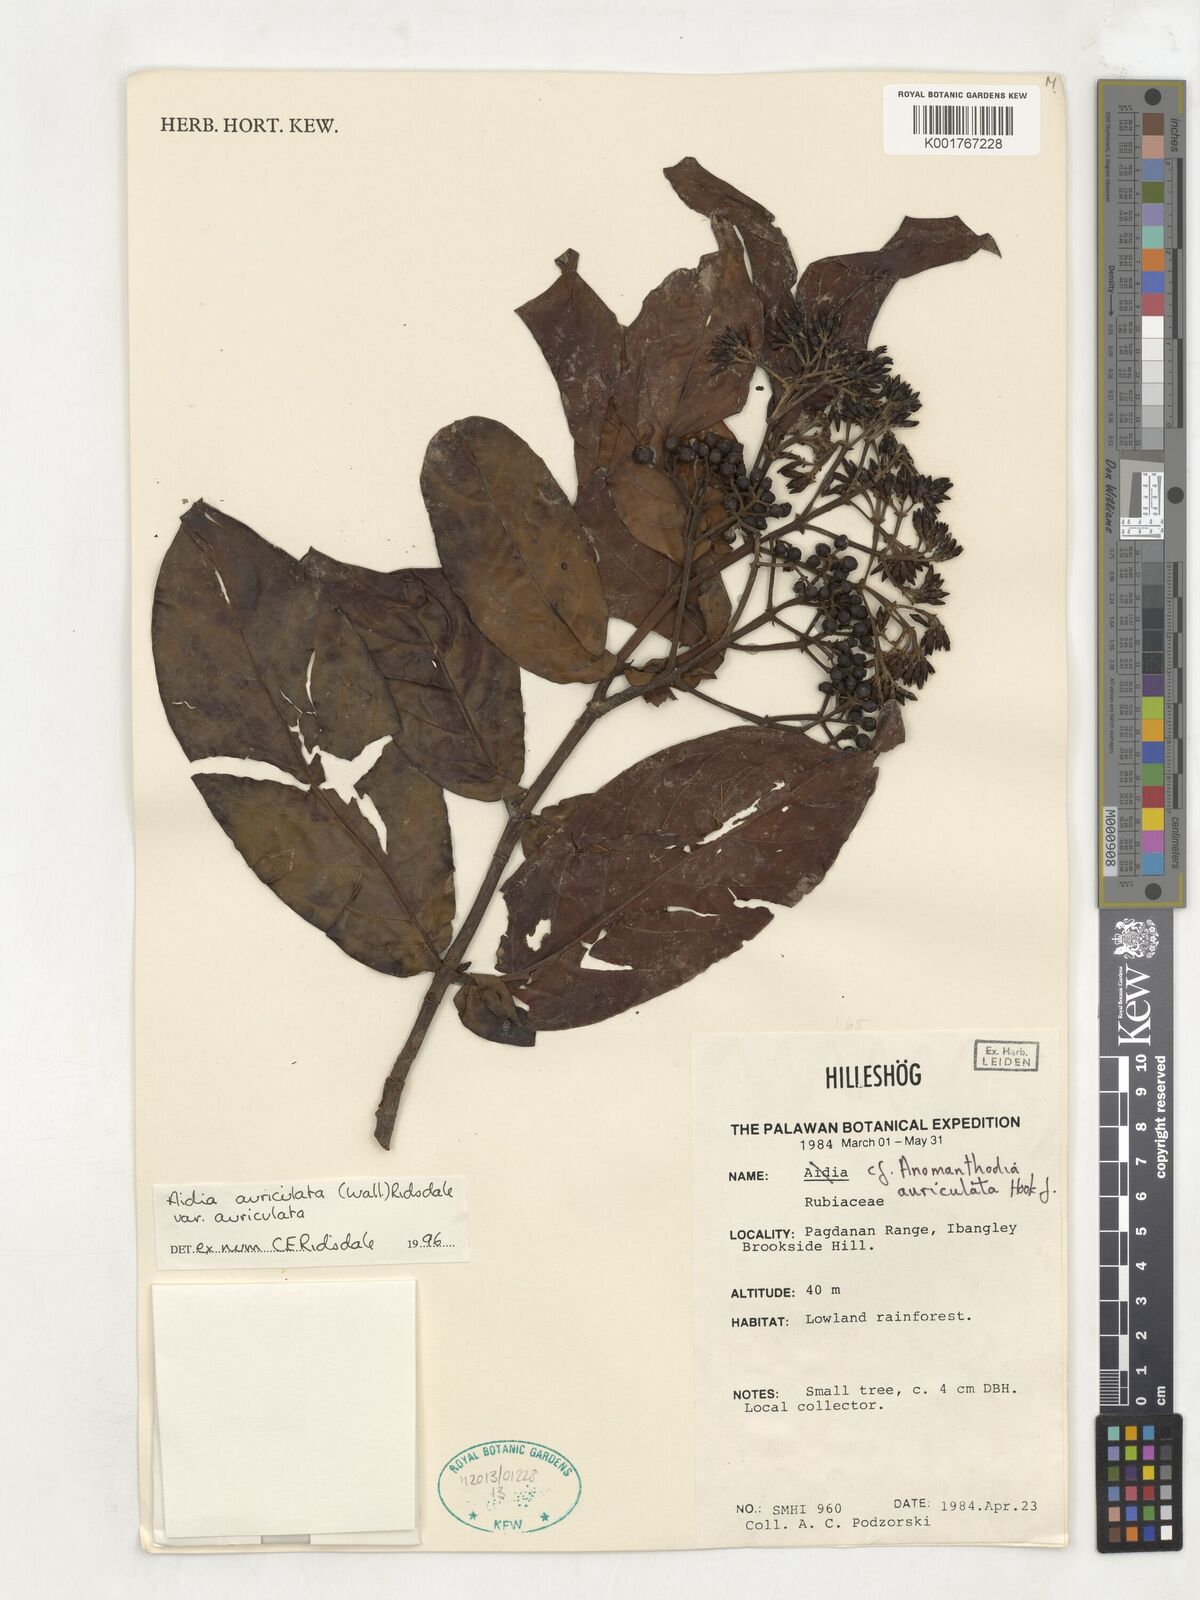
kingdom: Plantae
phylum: Tracheophyta
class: Magnoliopsida
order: Gentianales
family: Rubiaceae
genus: Aidia
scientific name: Aidia auriculata
